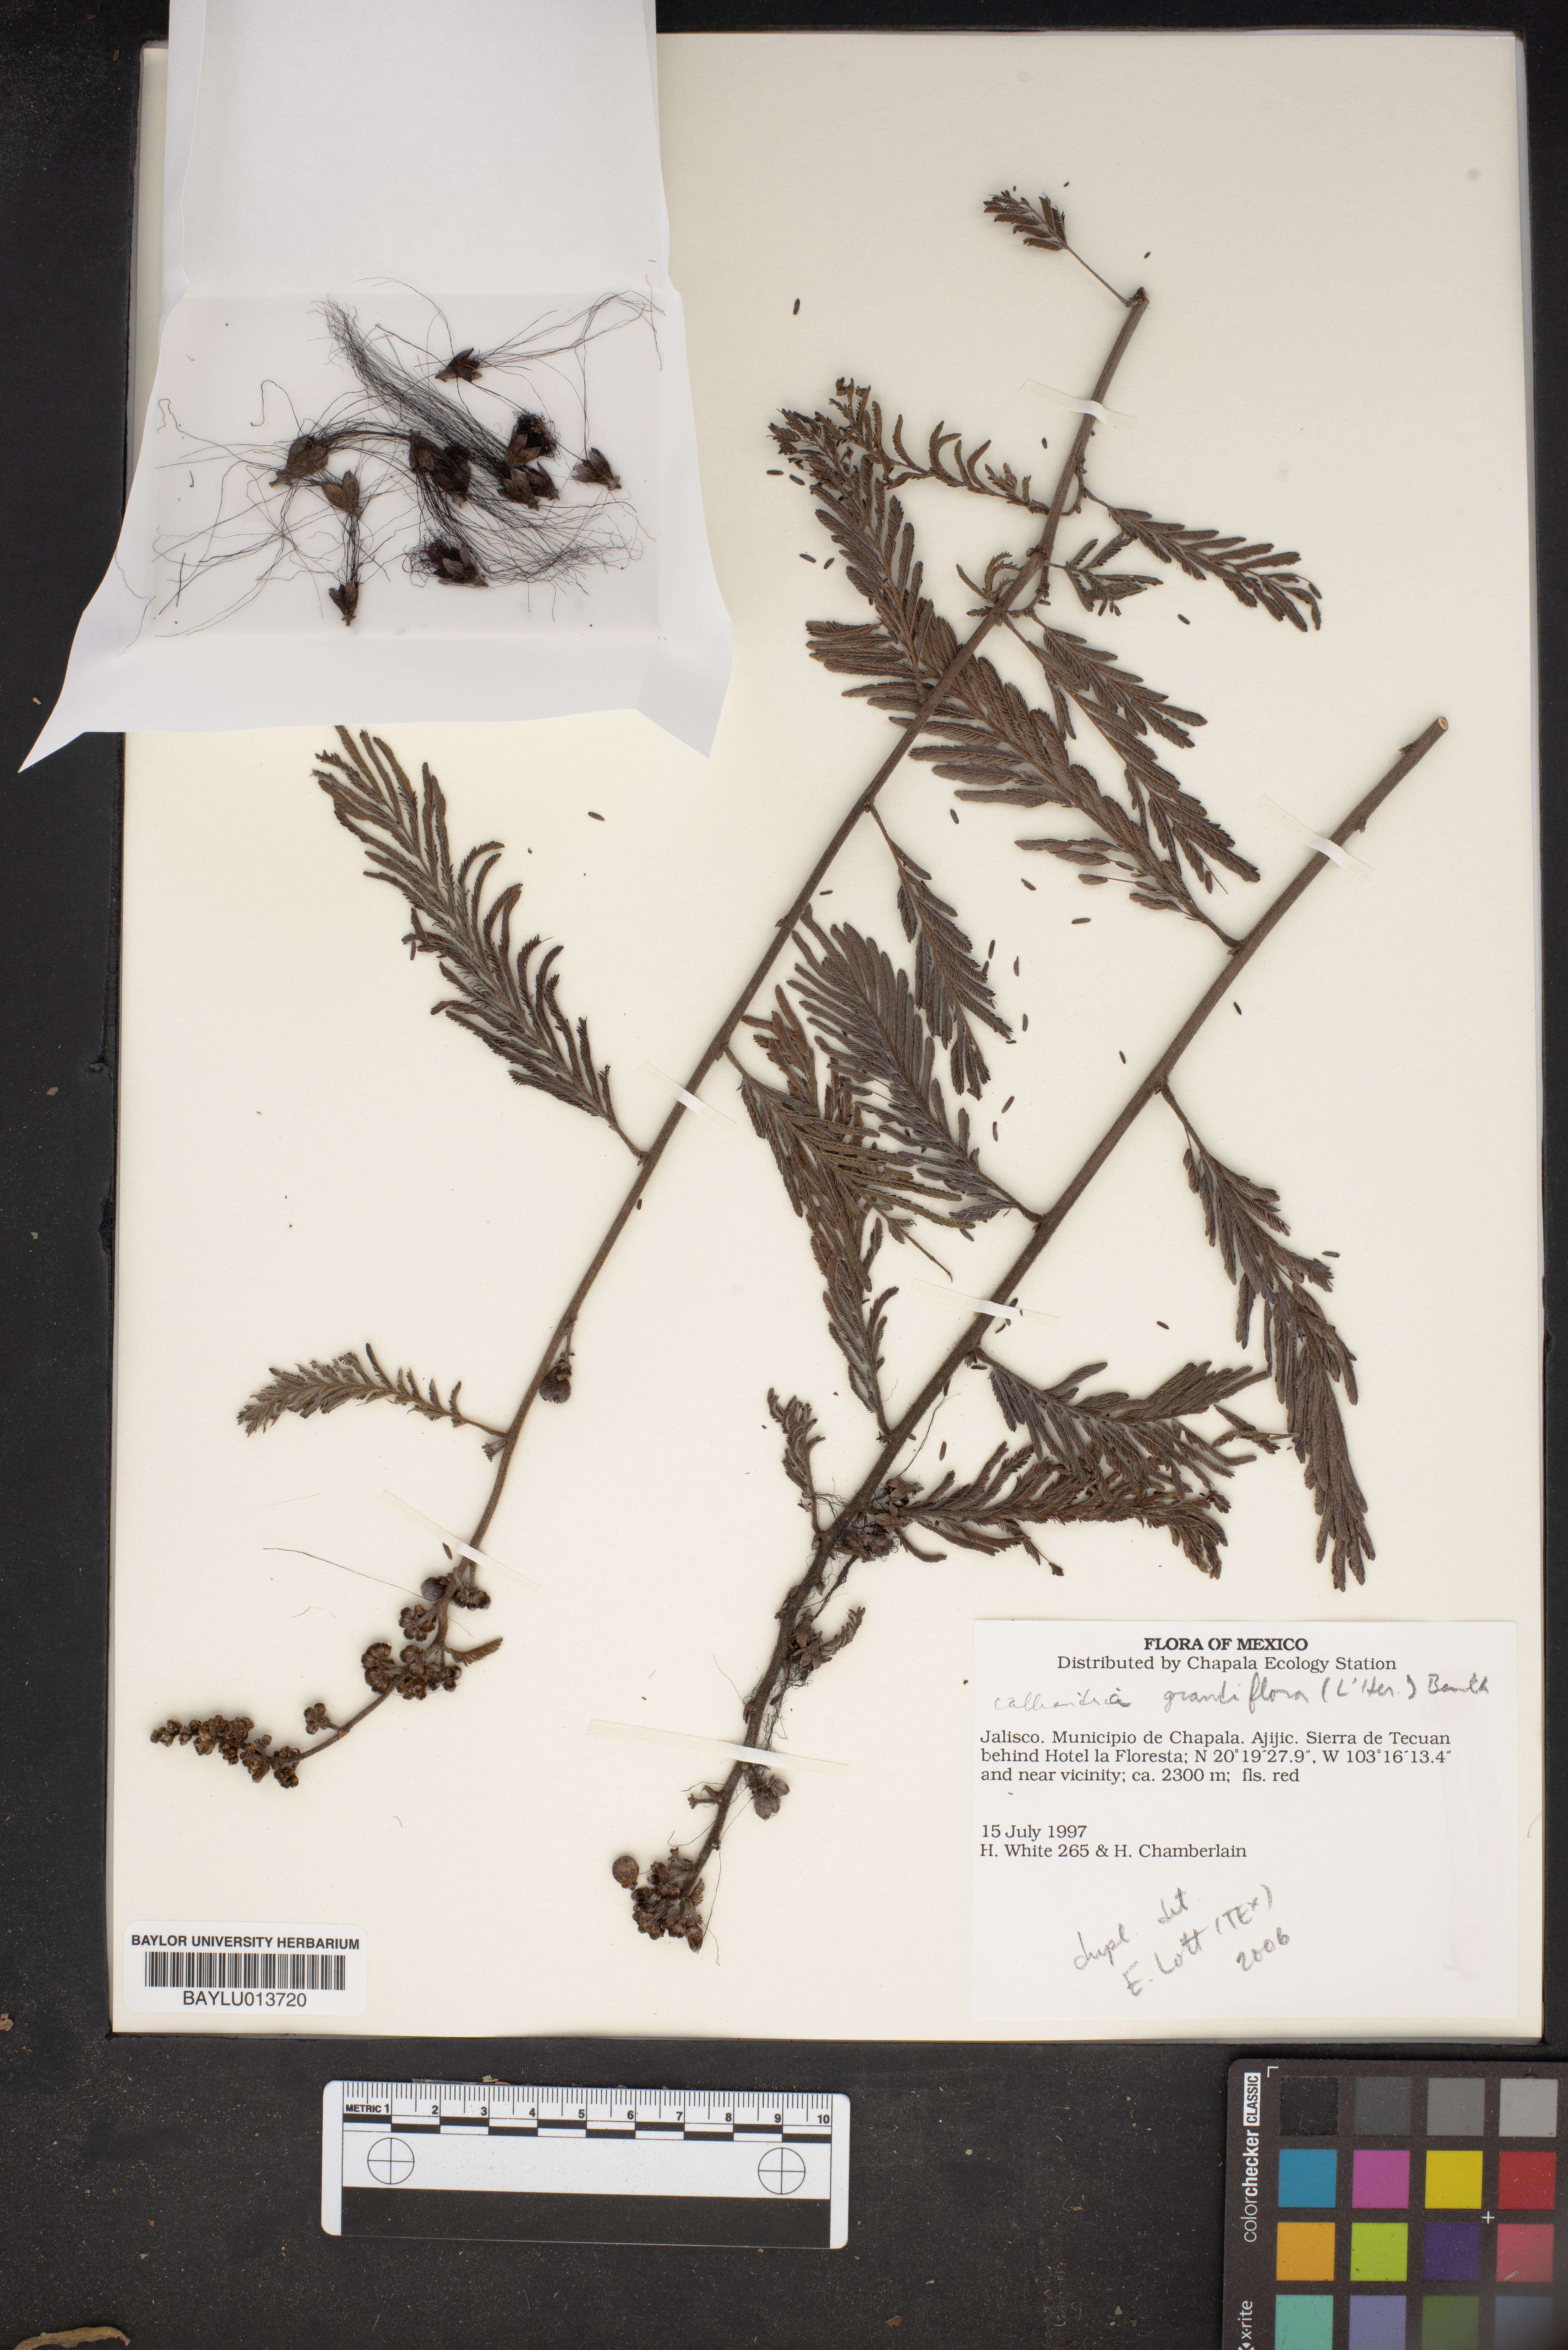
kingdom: Plantae
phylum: Tracheophyta
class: Magnoliopsida
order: Fabales
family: Fabaceae
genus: Calliandra
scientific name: Calliandra houstoniana
